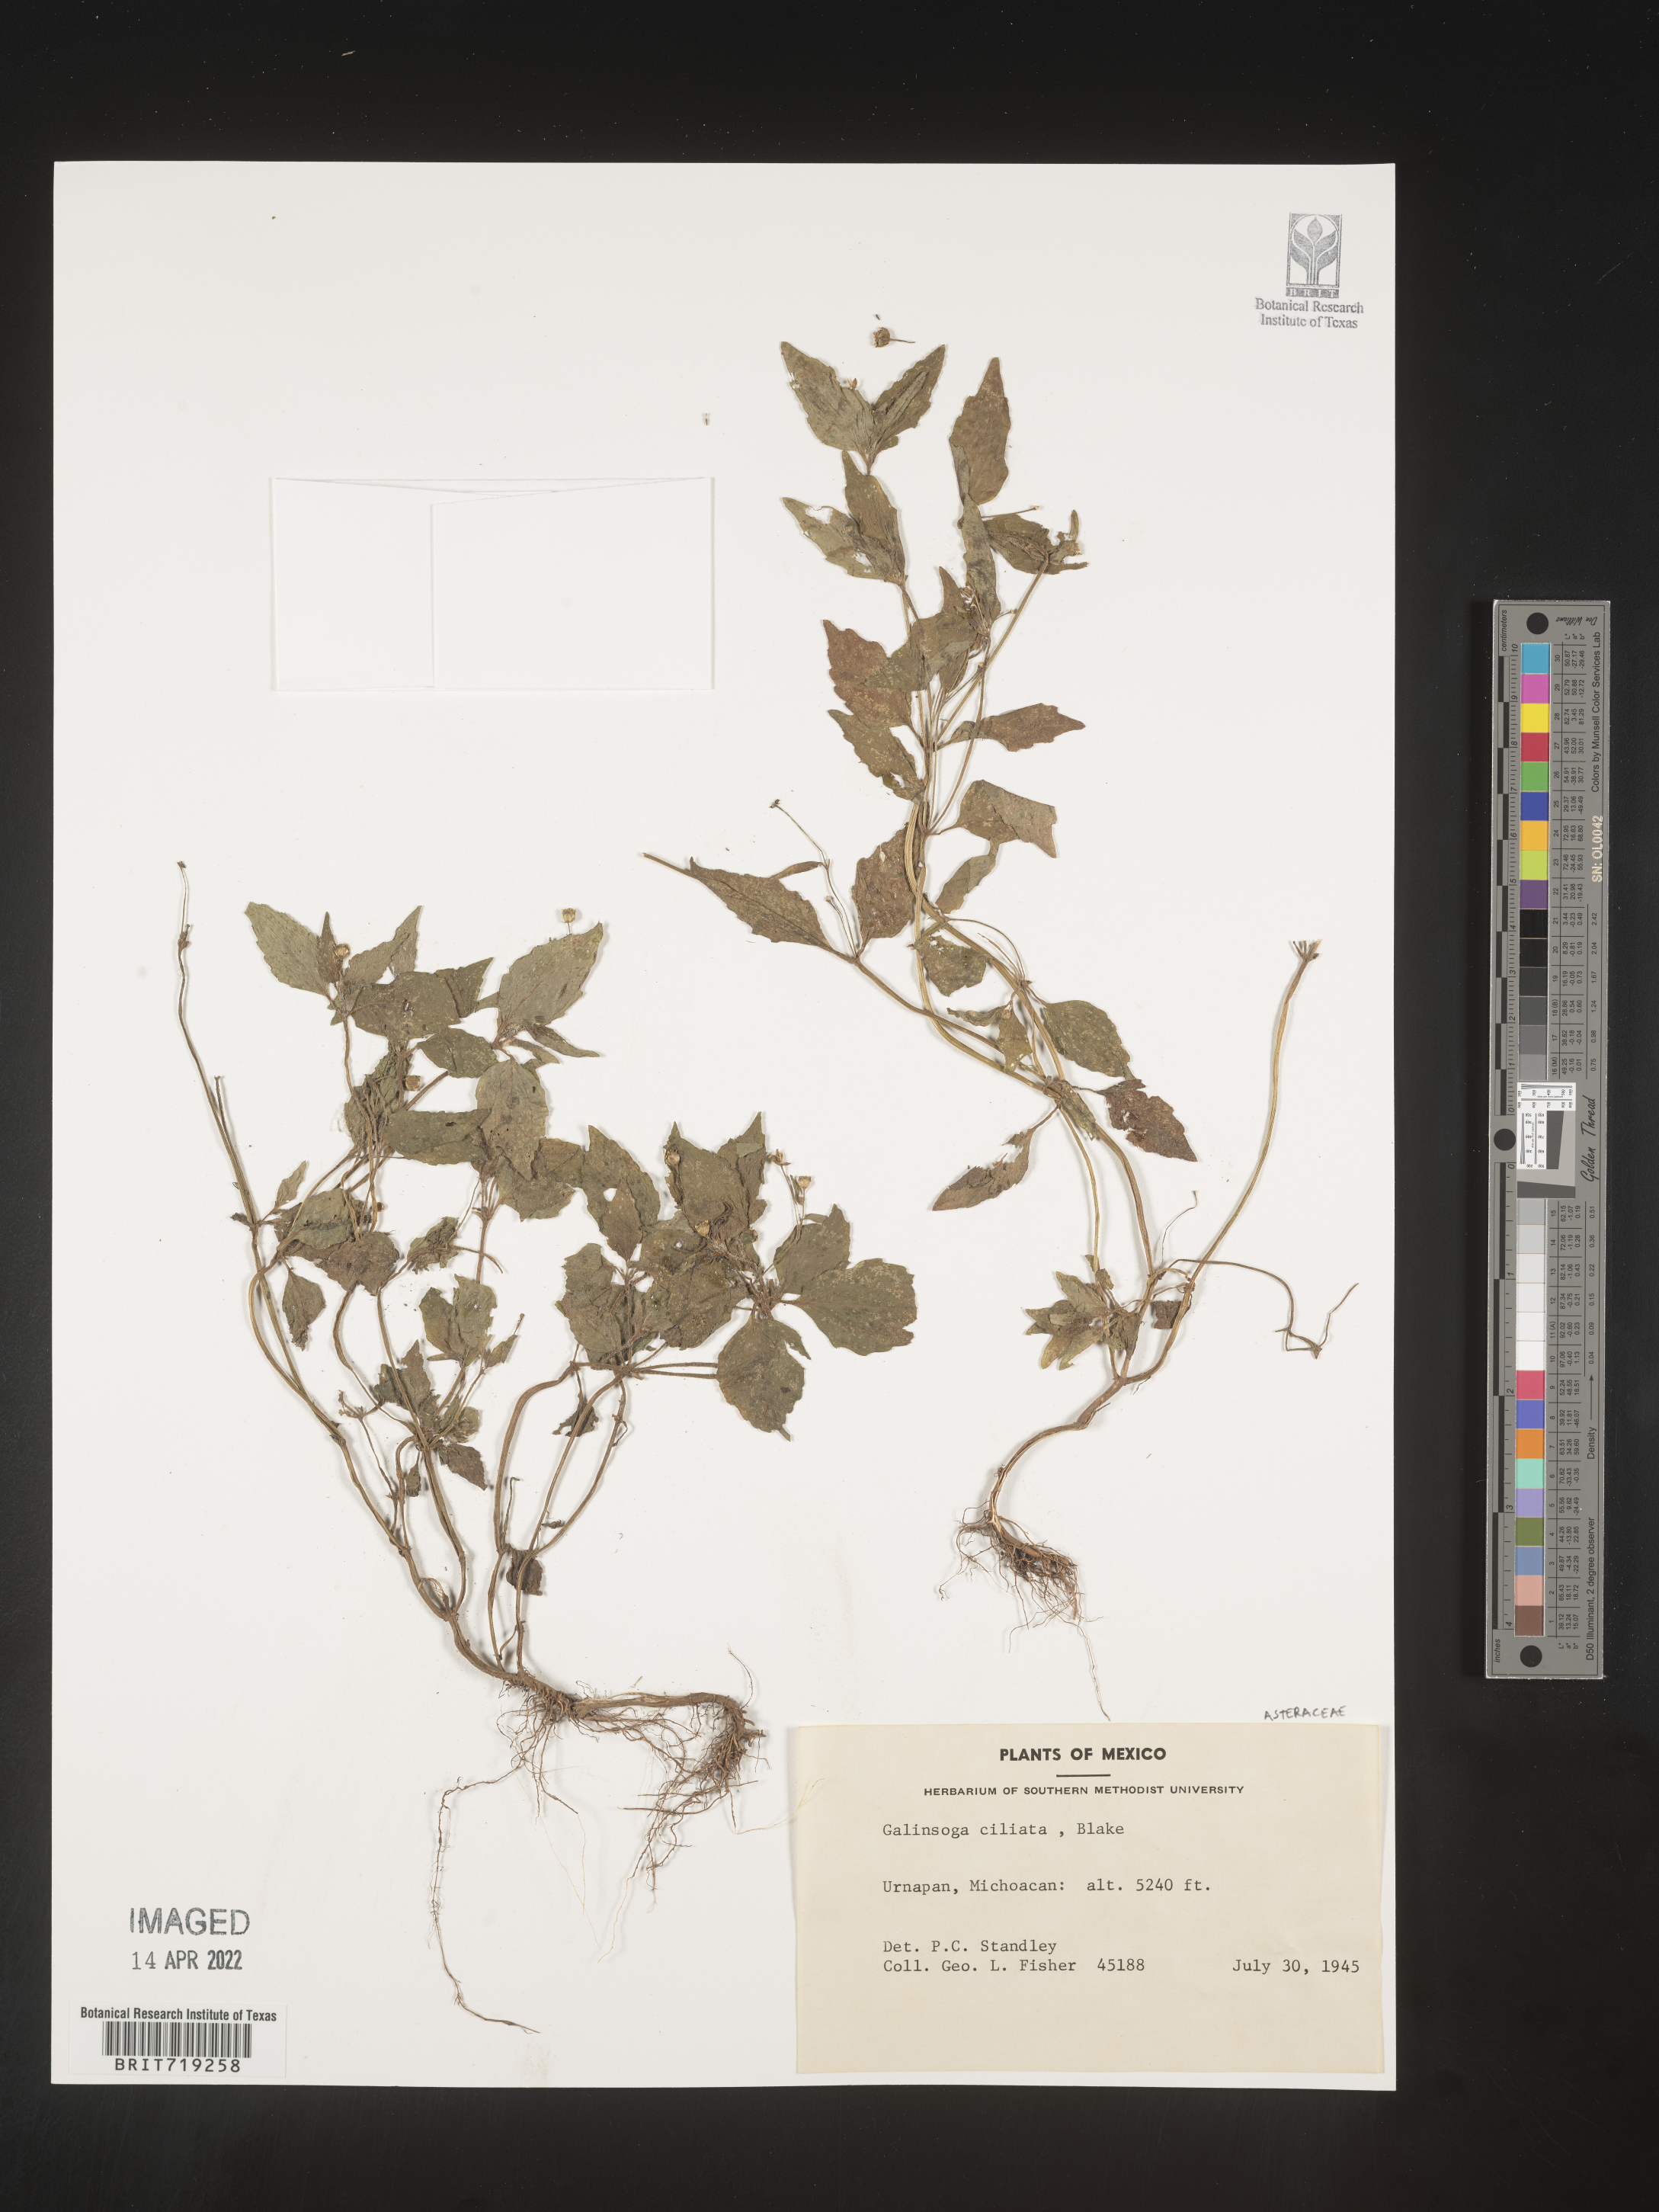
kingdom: Plantae
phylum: Tracheophyta
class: Magnoliopsida
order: Asterales
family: Asteraceae
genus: Galinsoga
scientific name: Galinsoga
